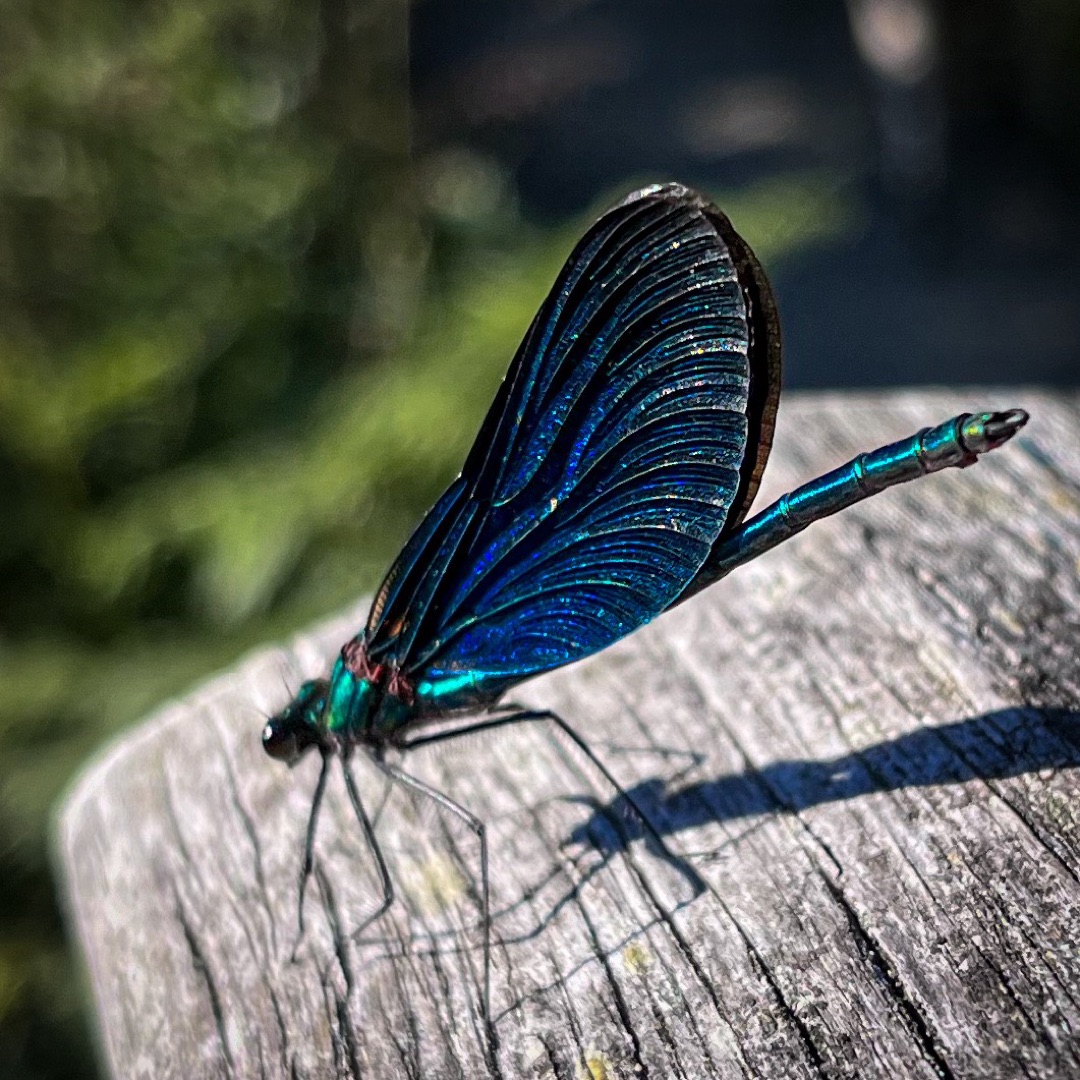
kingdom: Animalia
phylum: Arthropoda
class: Insecta
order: Odonata
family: Calopterygidae
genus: Calopteryx
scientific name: Calopteryx virgo
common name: Blåvinget pragtvandnymfe
